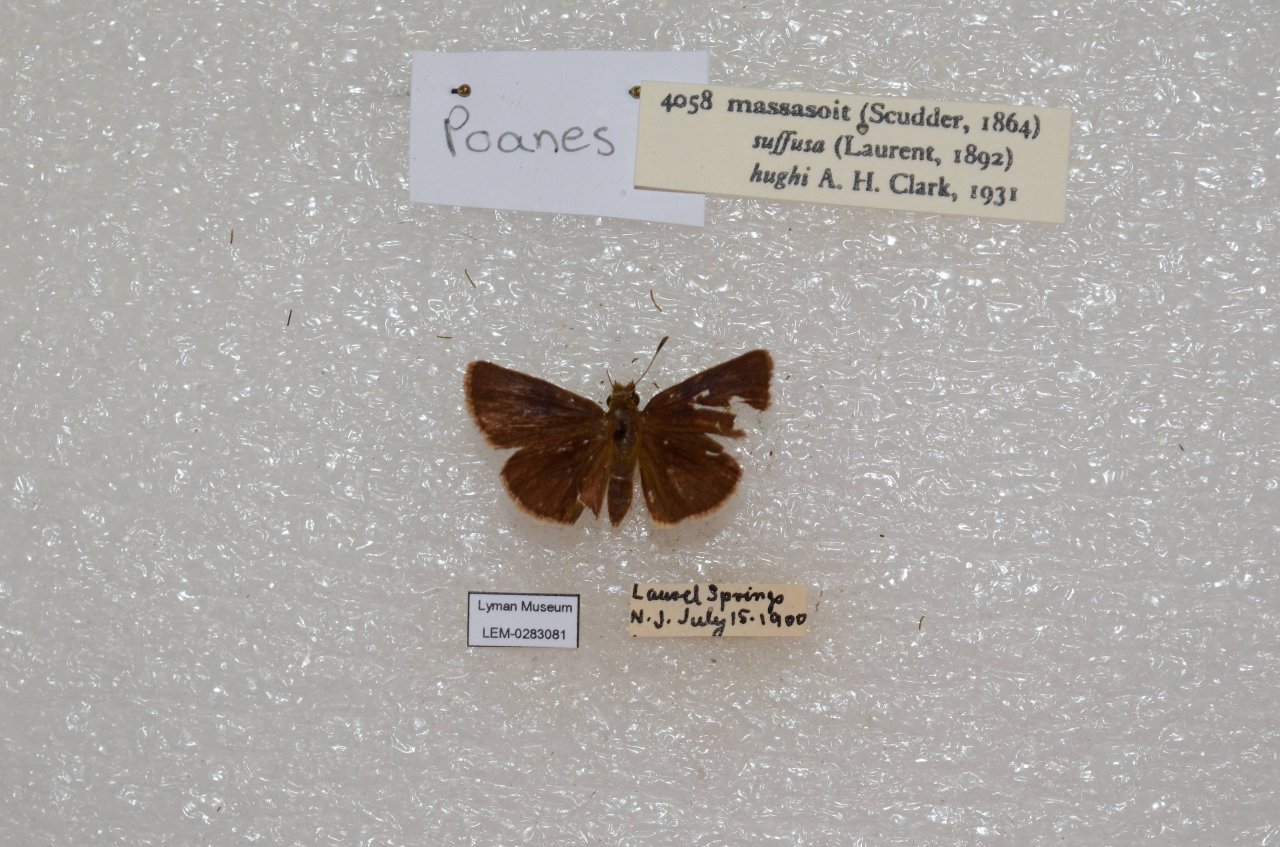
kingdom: Animalia
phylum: Arthropoda
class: Insecta
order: Lepidoptera
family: Hesperiidae
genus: Poanes
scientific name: Poanes massasoit
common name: Mulberry Wing
